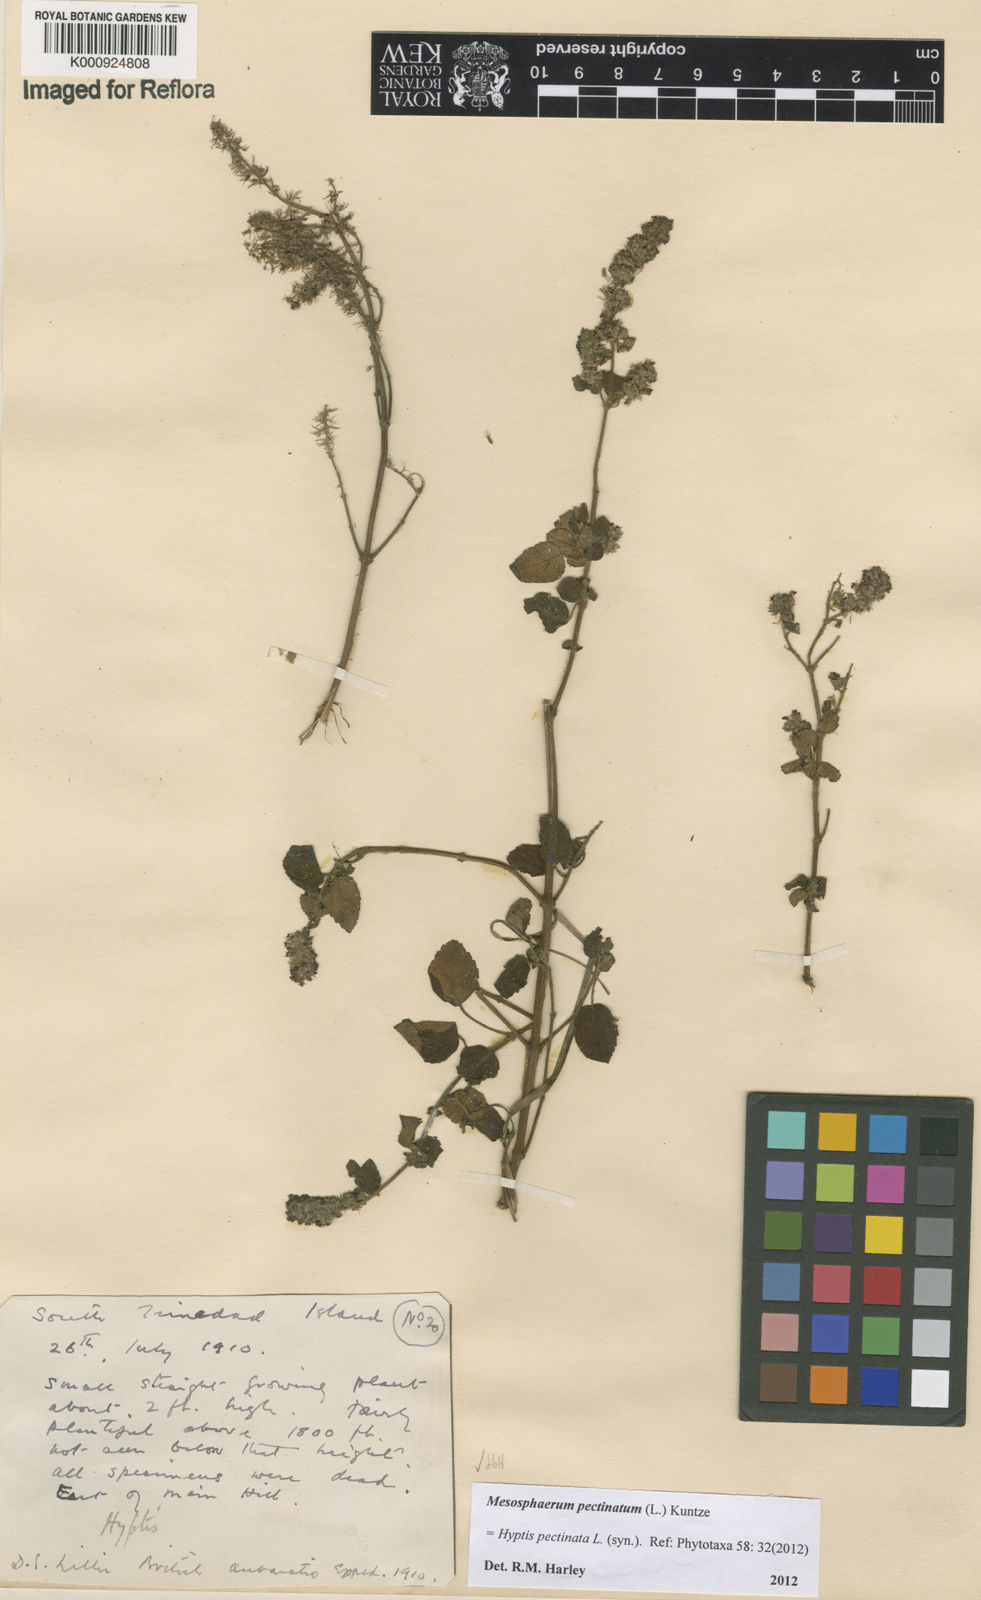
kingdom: Plantae
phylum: Tracheophyta
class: Magnoliopsida
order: Lamiales
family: Lamiaceae
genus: Mesosphaerum
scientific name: Mesosphaerum pectinatum
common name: Comb hyptis
